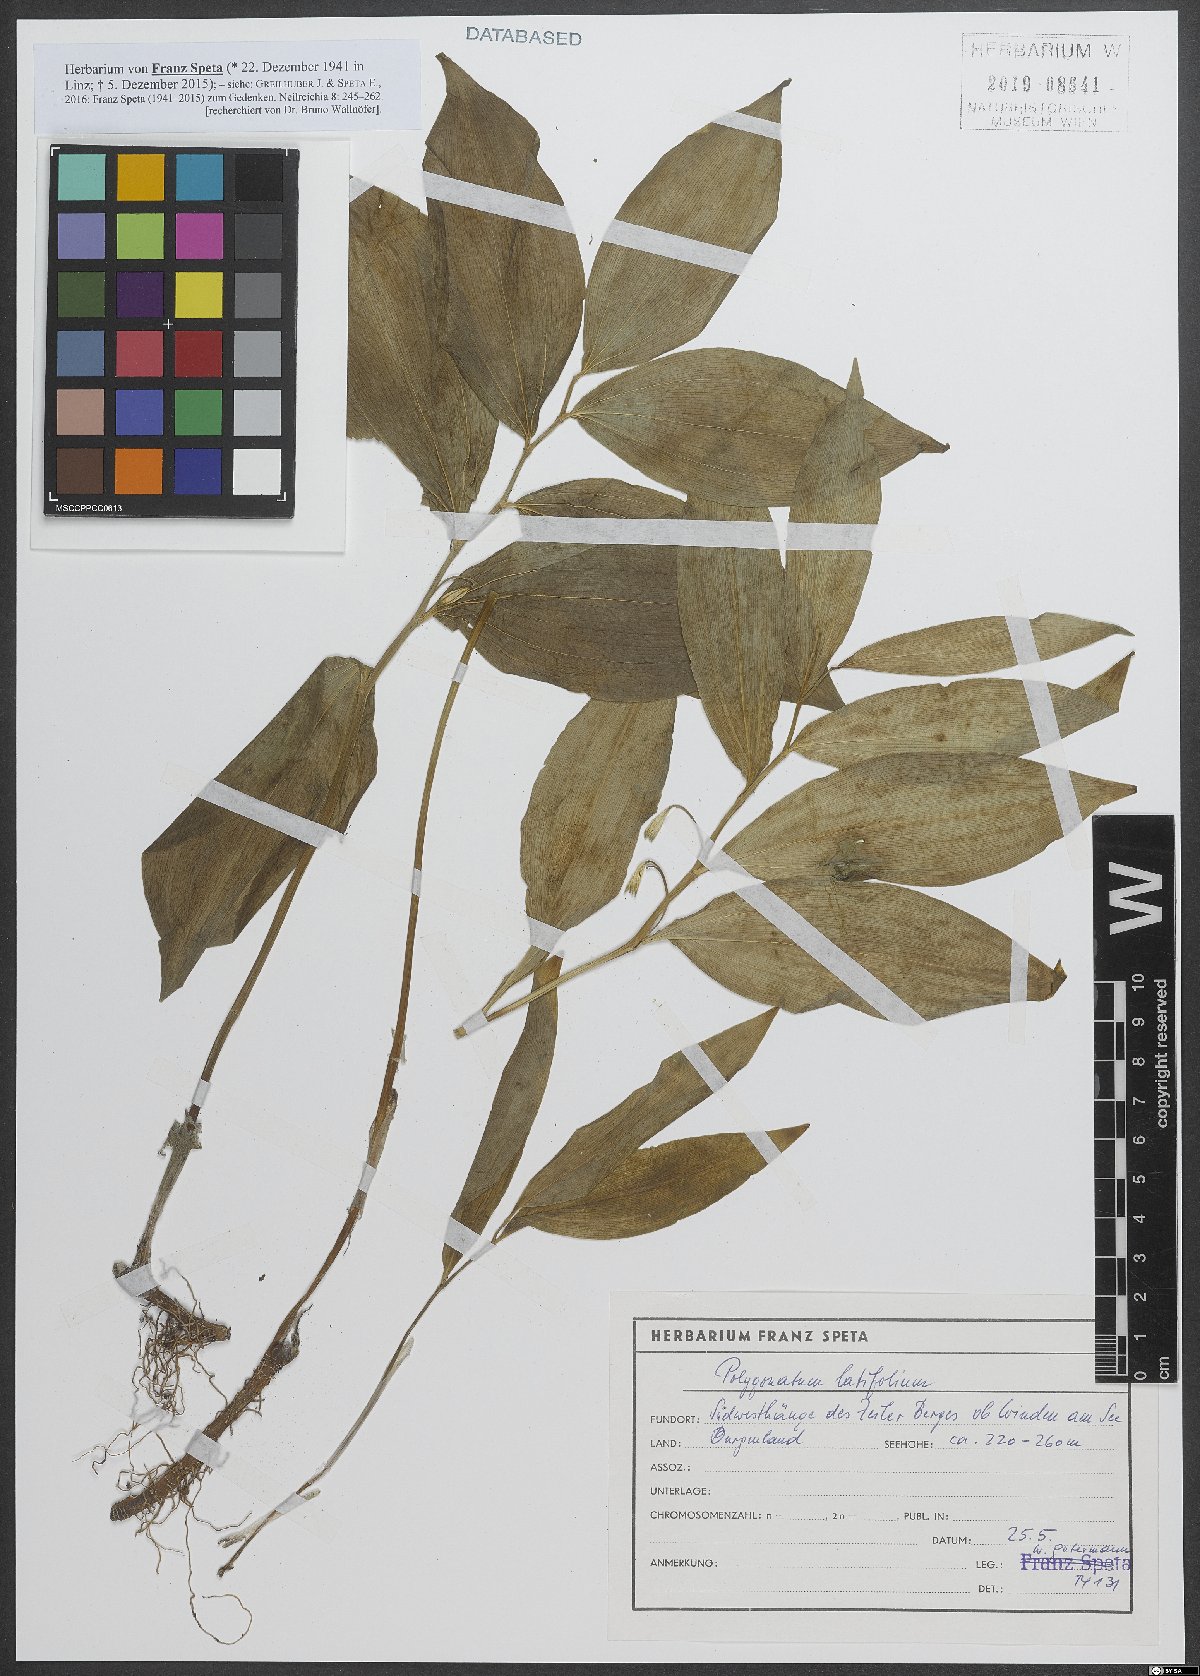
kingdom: Plantae
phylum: Tracheophyta
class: Liliopsida
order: Asparagales
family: Asparagaceae
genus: Polygonatum
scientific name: Polygonatum latifolium
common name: Broadleaf solomon's seal
